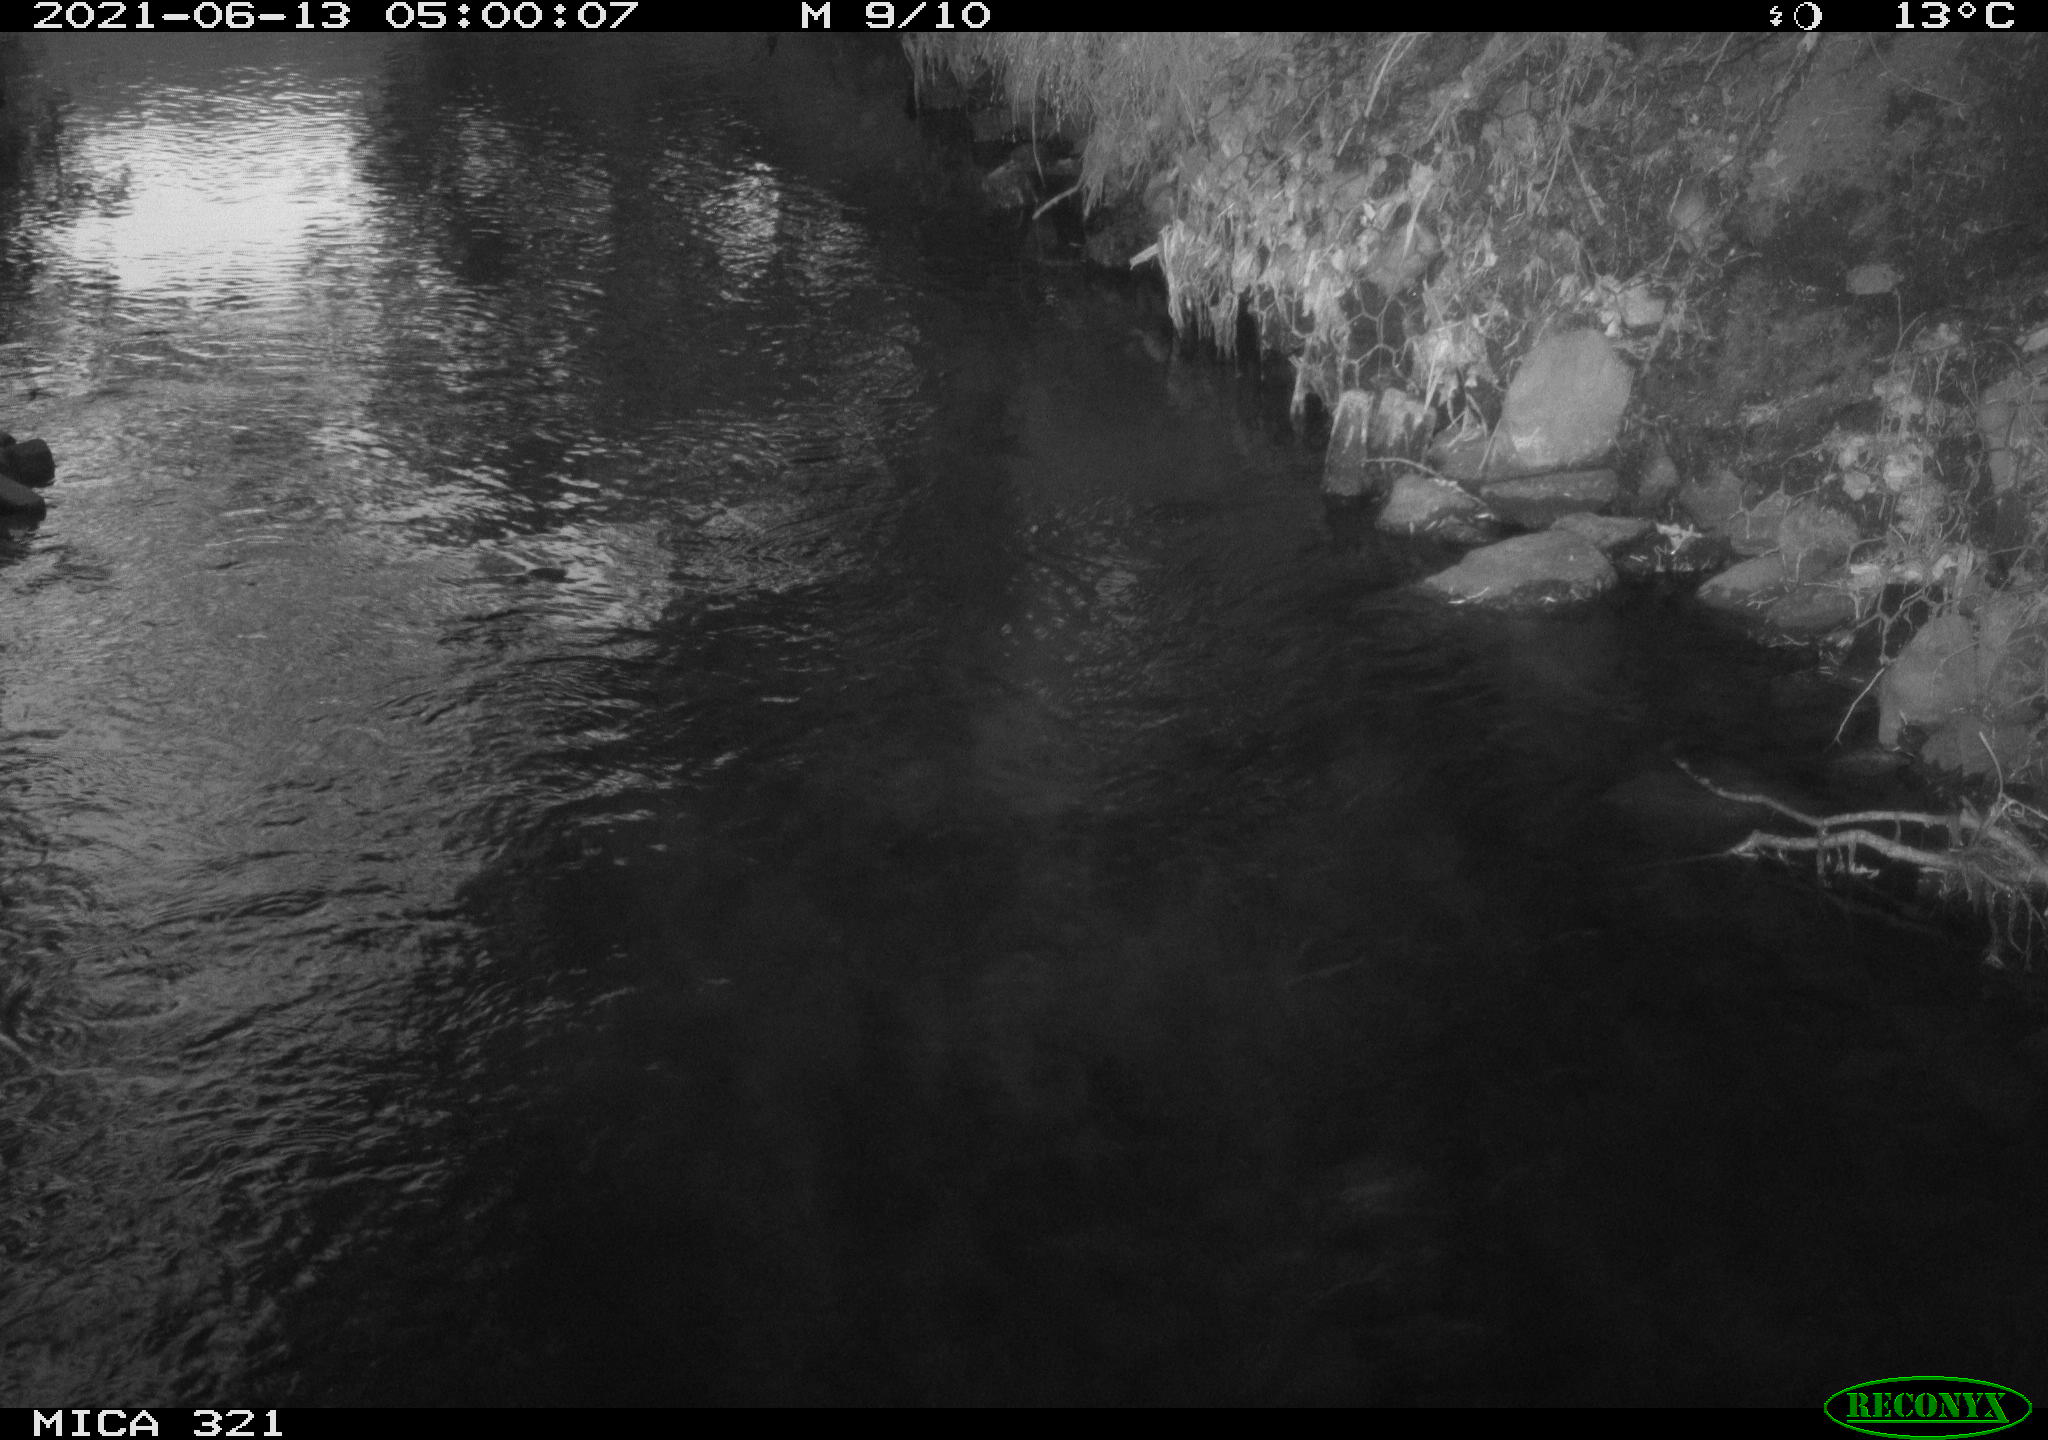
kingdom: Animalia
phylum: Chordata
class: Aves
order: Anseriformes
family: Anatidae
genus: Anas
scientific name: Anas platyrhynchos
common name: Mallard
